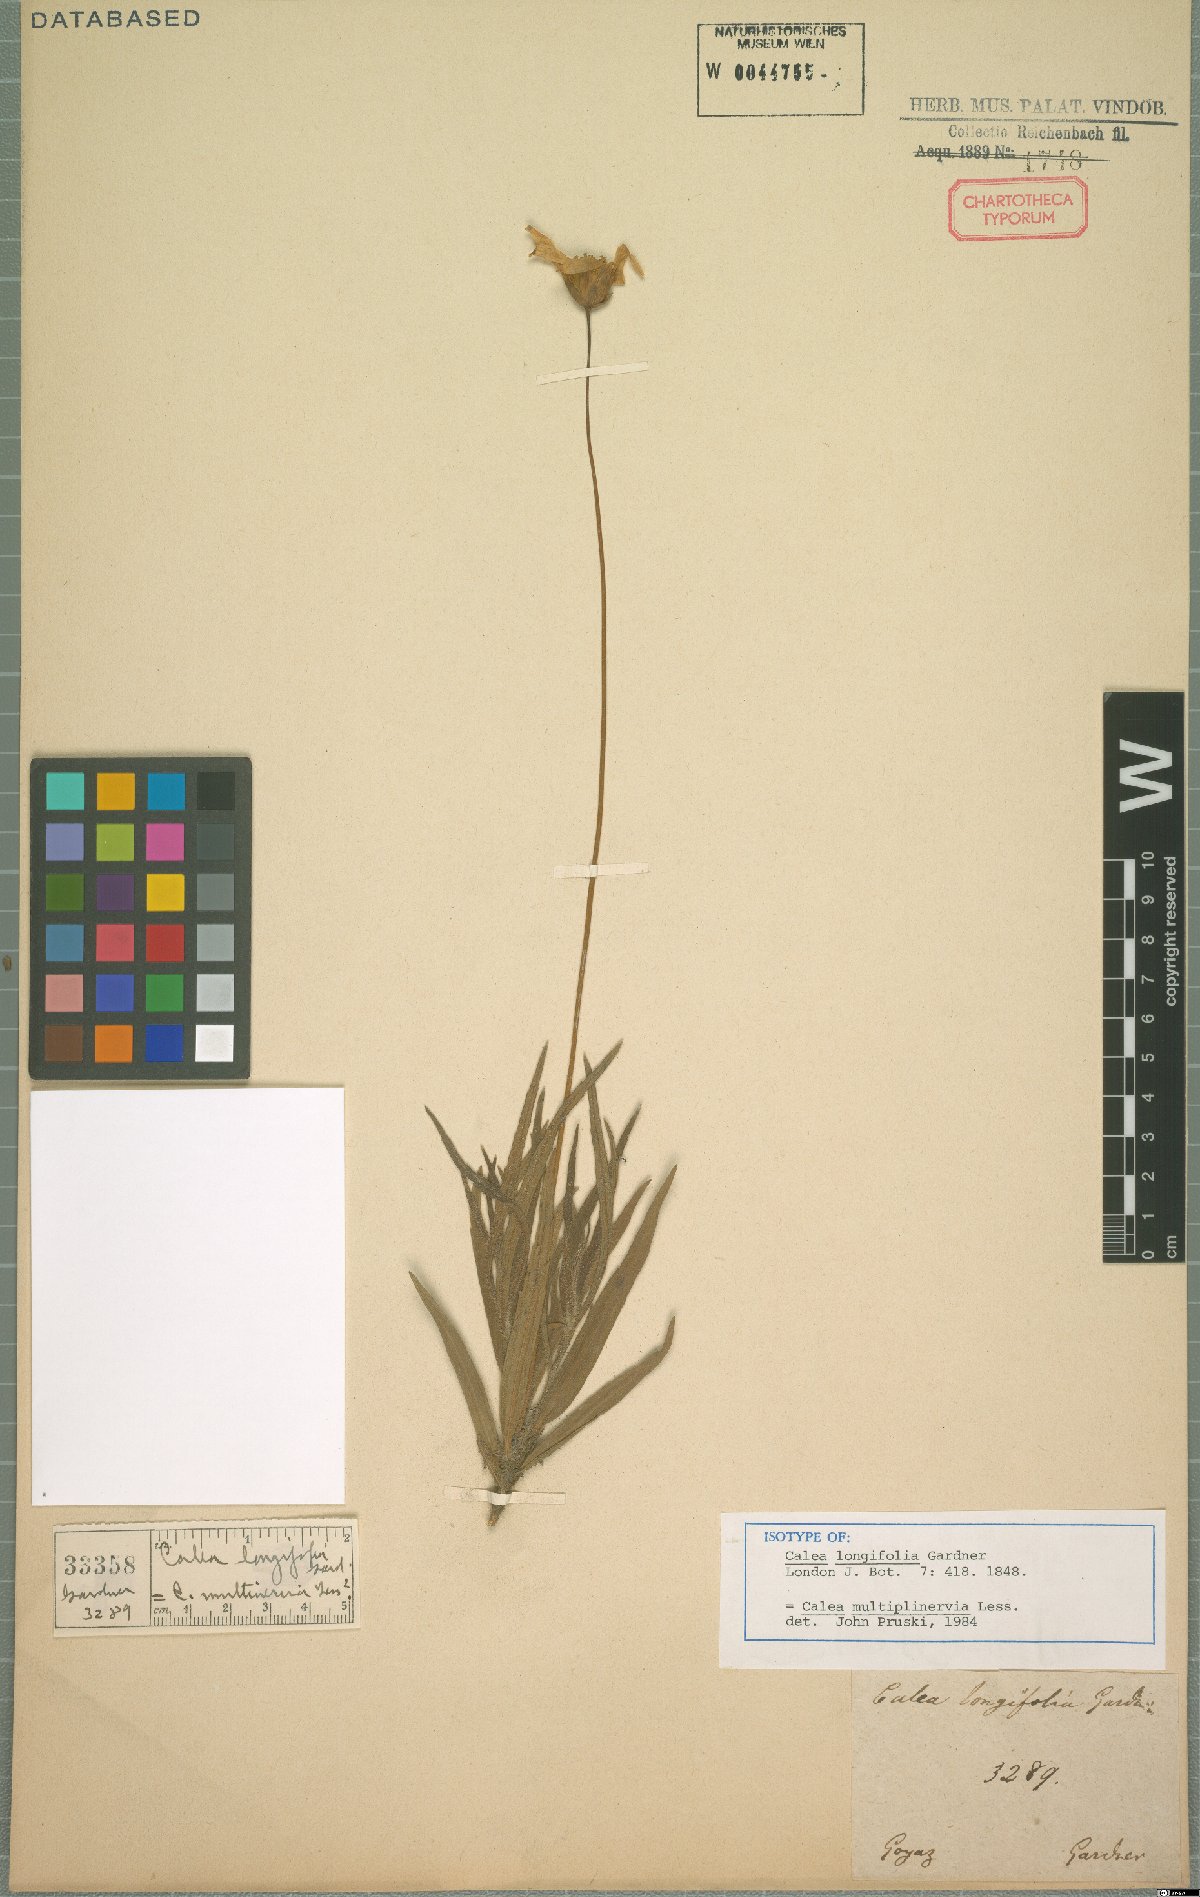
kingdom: Plantae
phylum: Tracheophyta
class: Magnoliopsida
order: Asterales
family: Asteraceae
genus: Calea
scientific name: Calea multiplinervia
